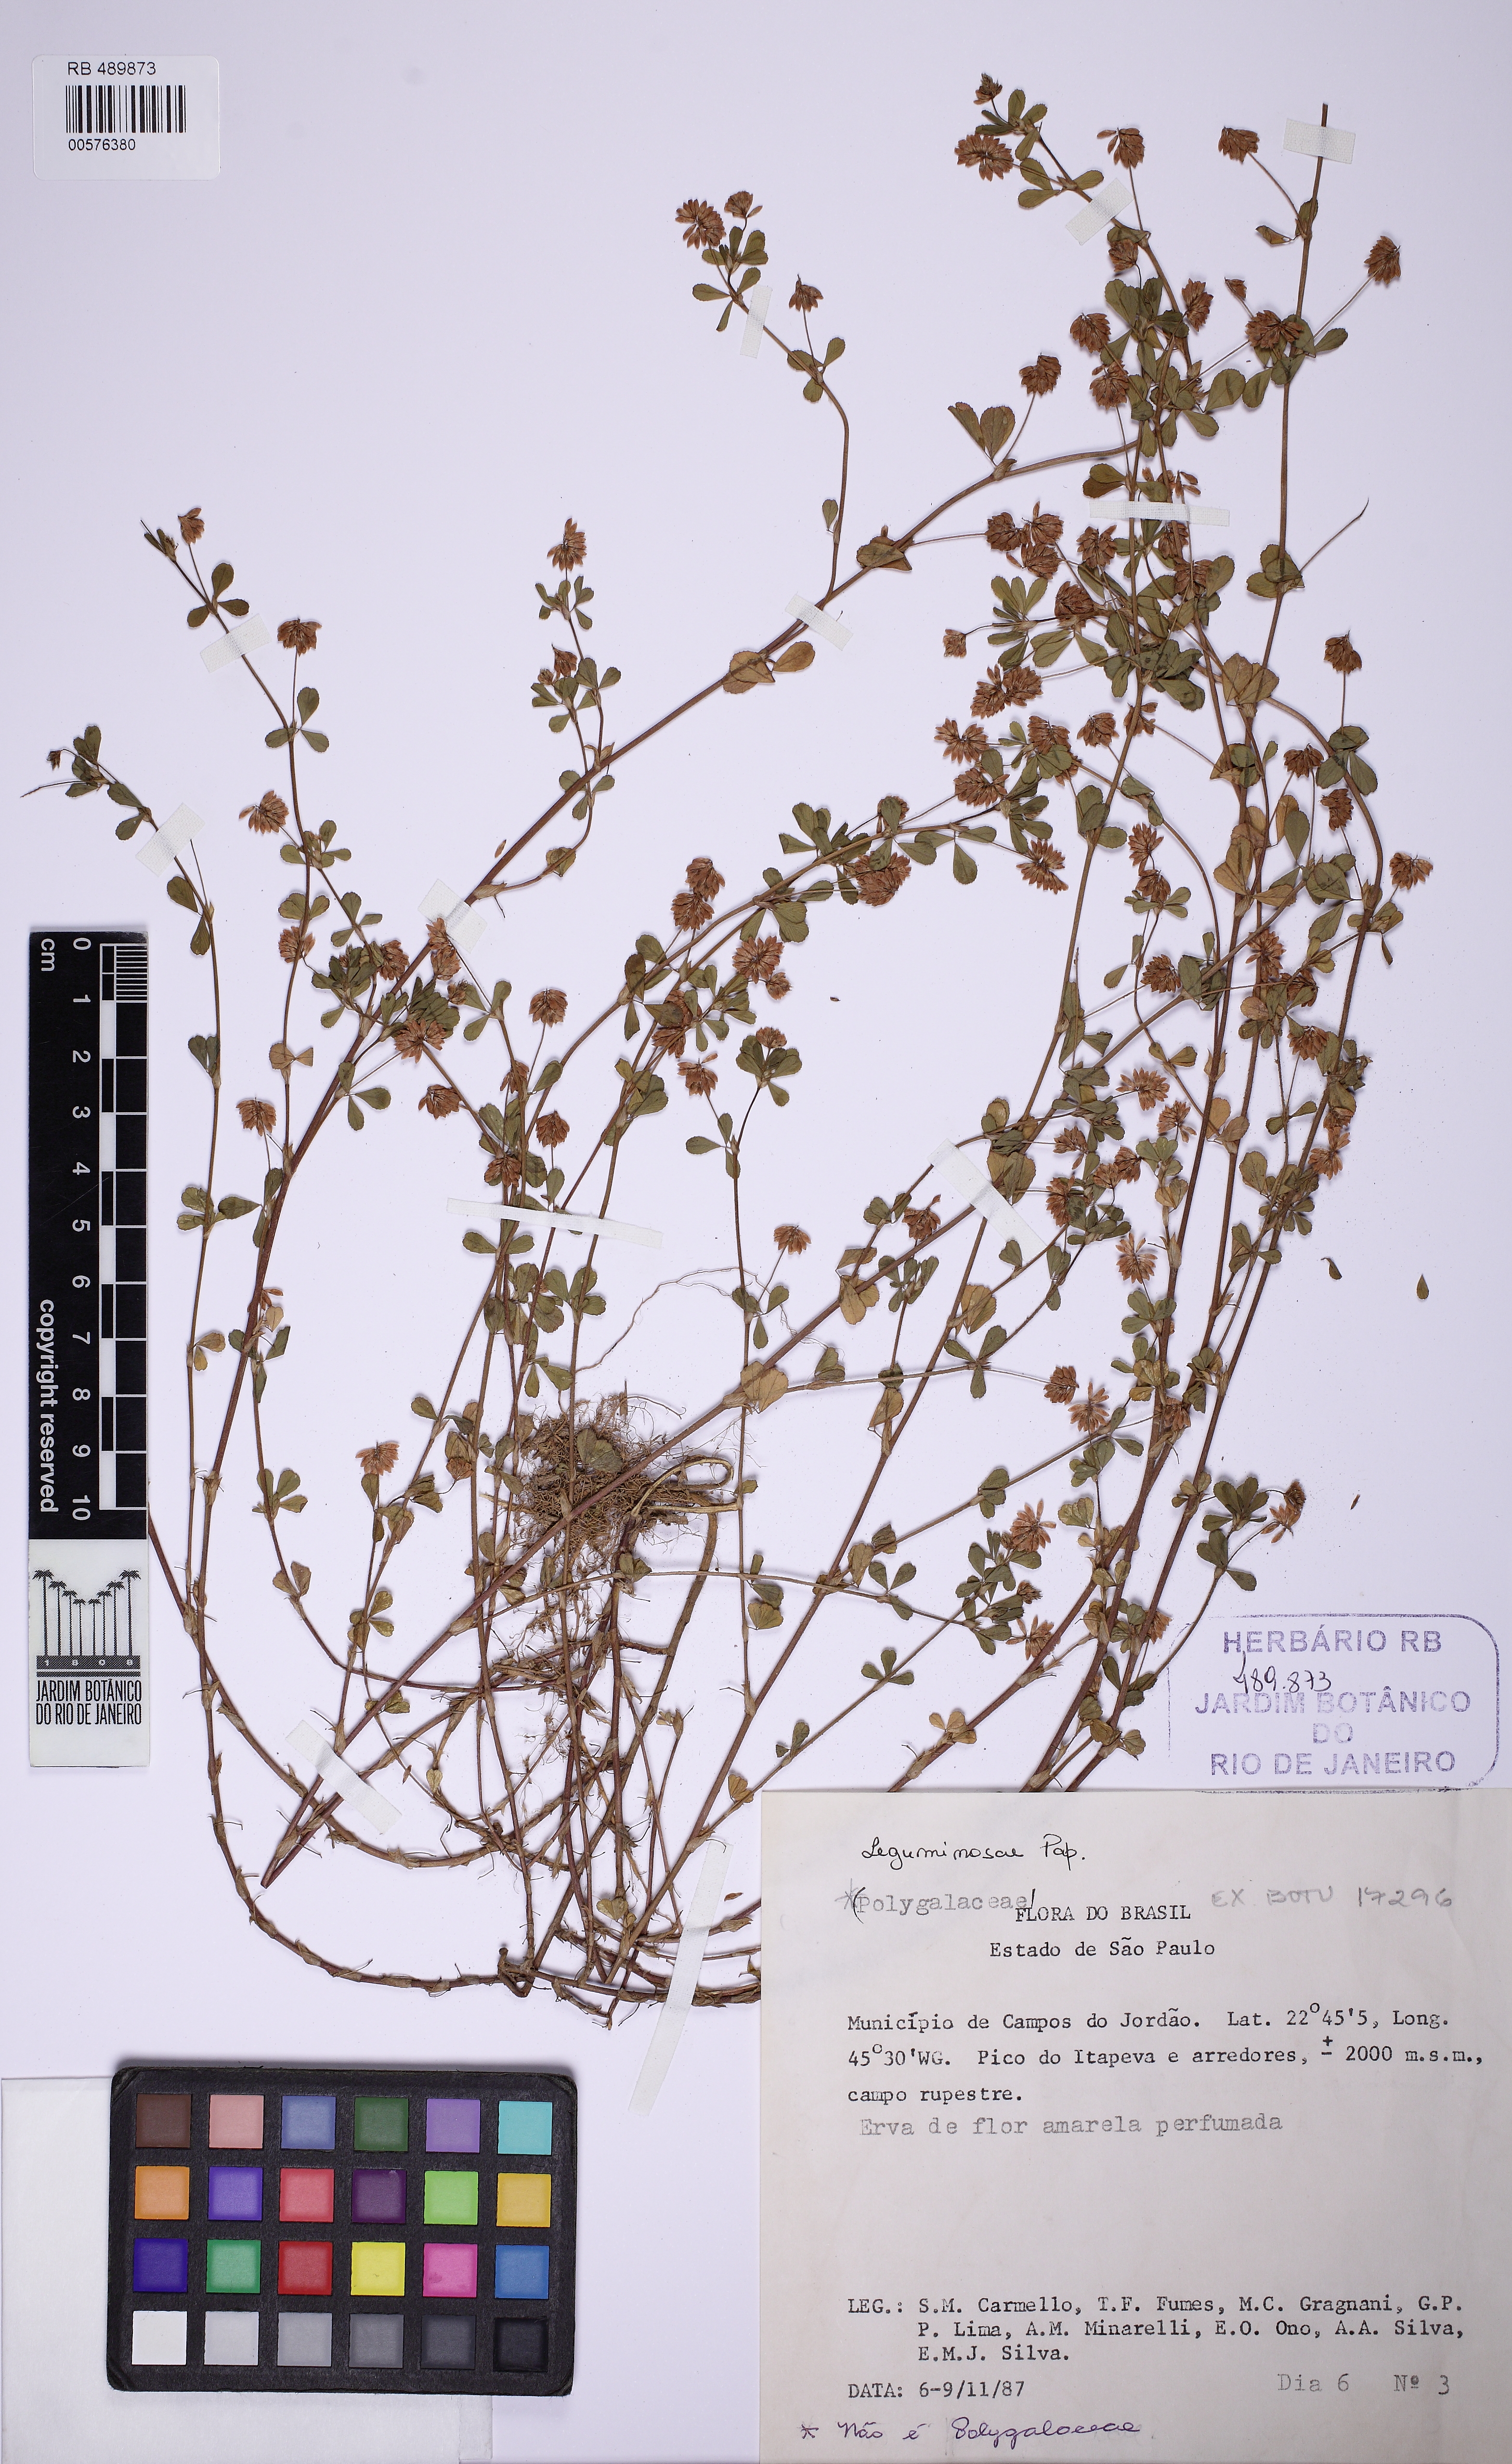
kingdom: Plantae
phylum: Tracheophyta
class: Magnoliopsida
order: Fabales
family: Fabaceae
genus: Trifolium
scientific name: Trifolium
